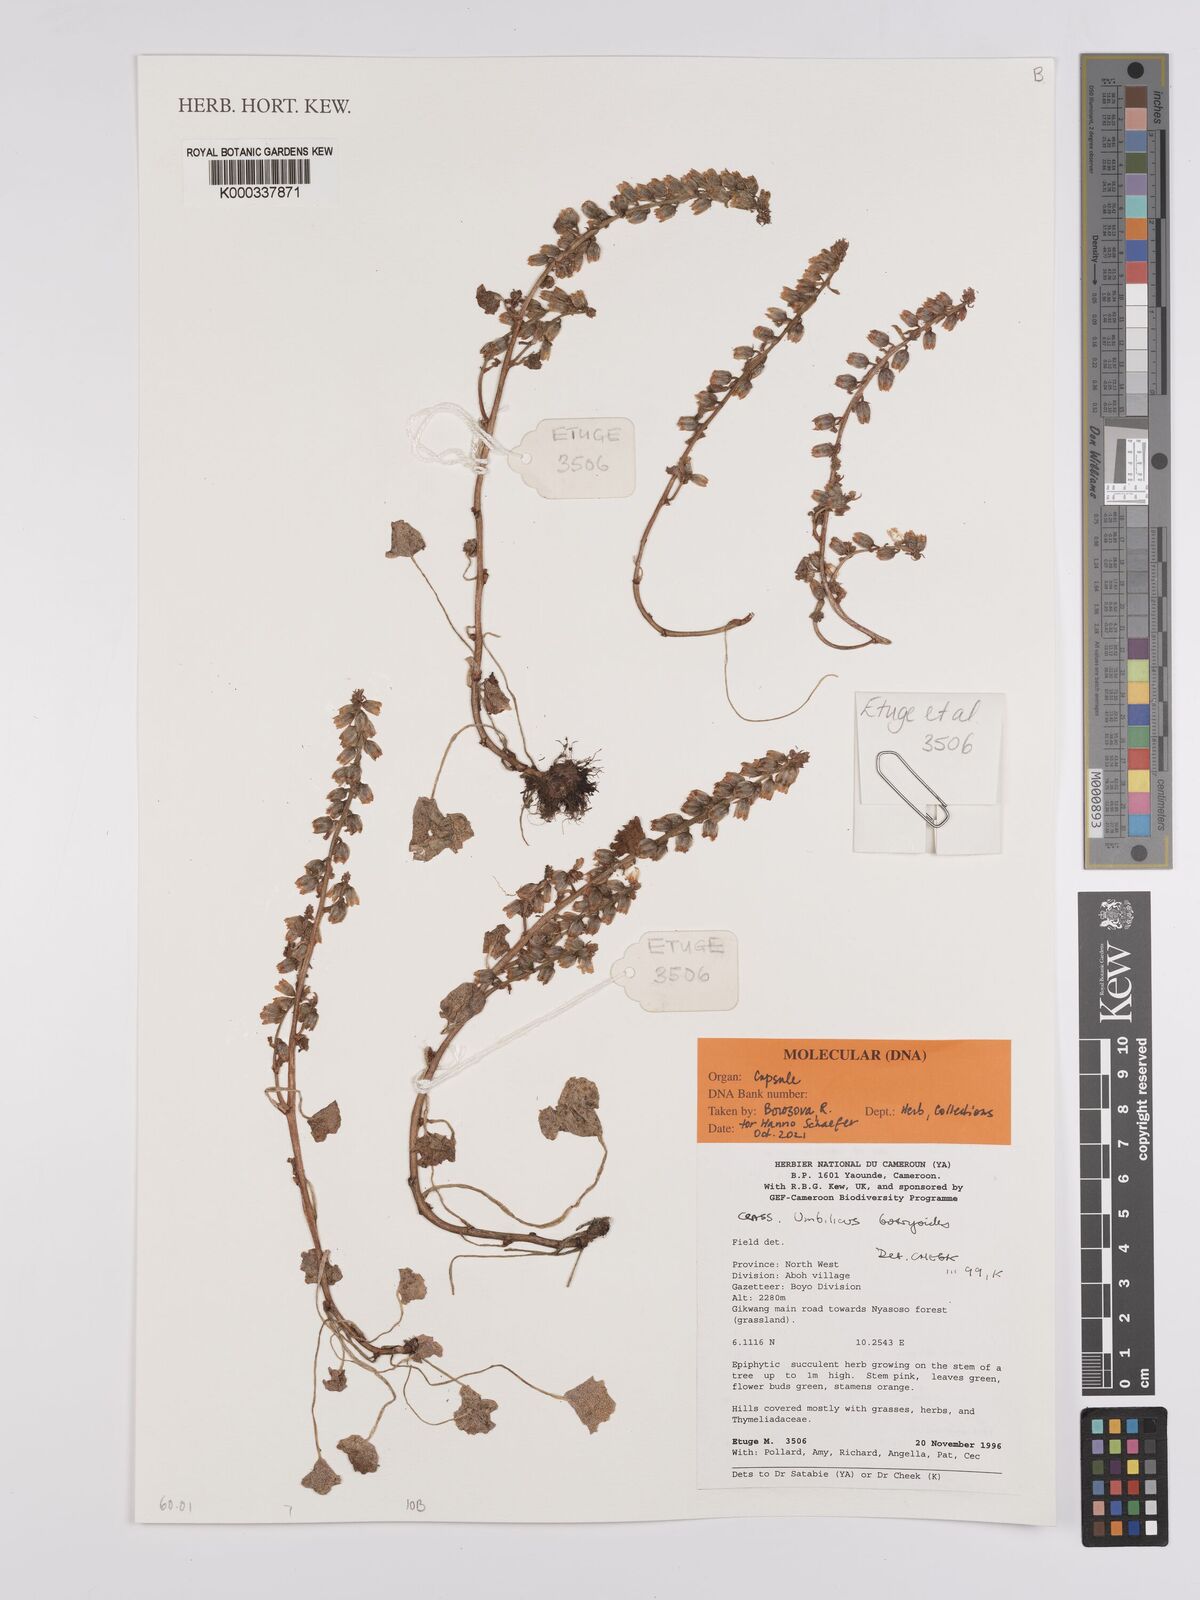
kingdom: Plantae
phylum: Tracheophyta
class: Magnoliopsida
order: Saxifragales
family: Crassulaceae
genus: Umbilicus
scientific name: Umbilicus botryoides
